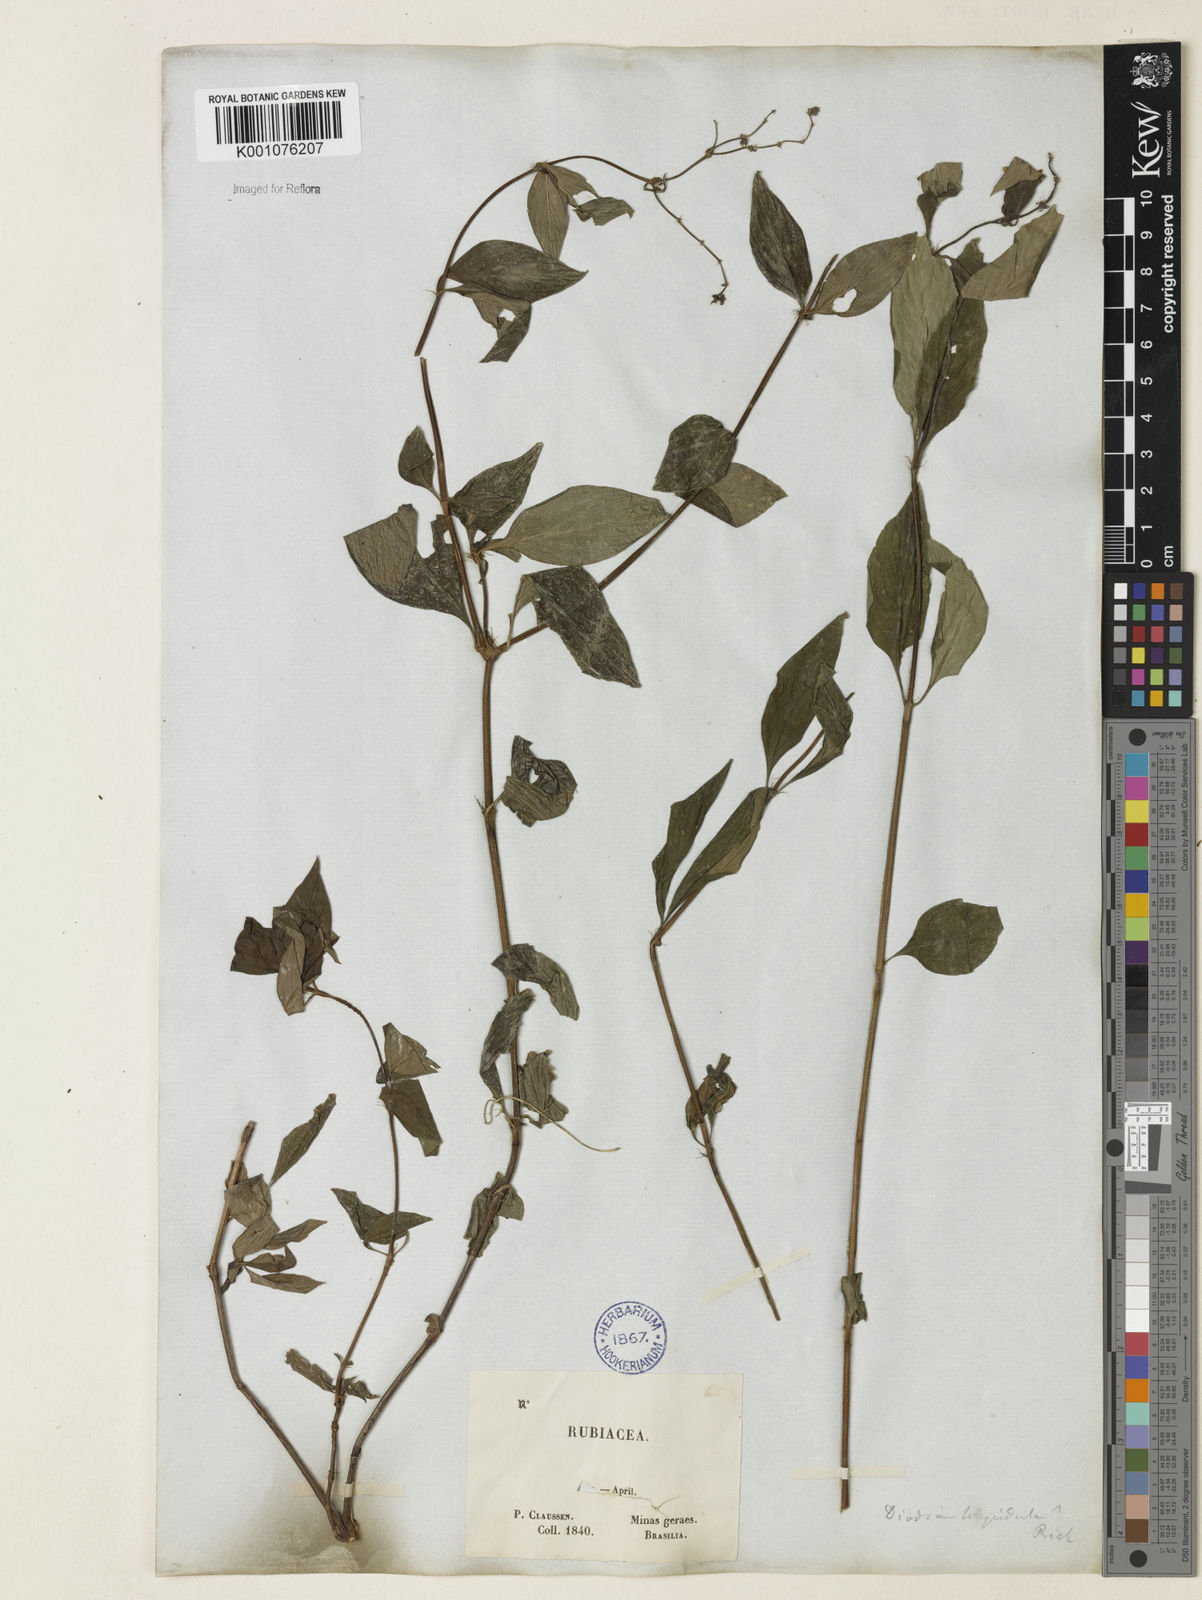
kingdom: Plantae
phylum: Tracheophyta
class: Magnoliopsida
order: Gentianales
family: Rubiaceae
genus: Spermacoce
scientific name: Spermacoce
